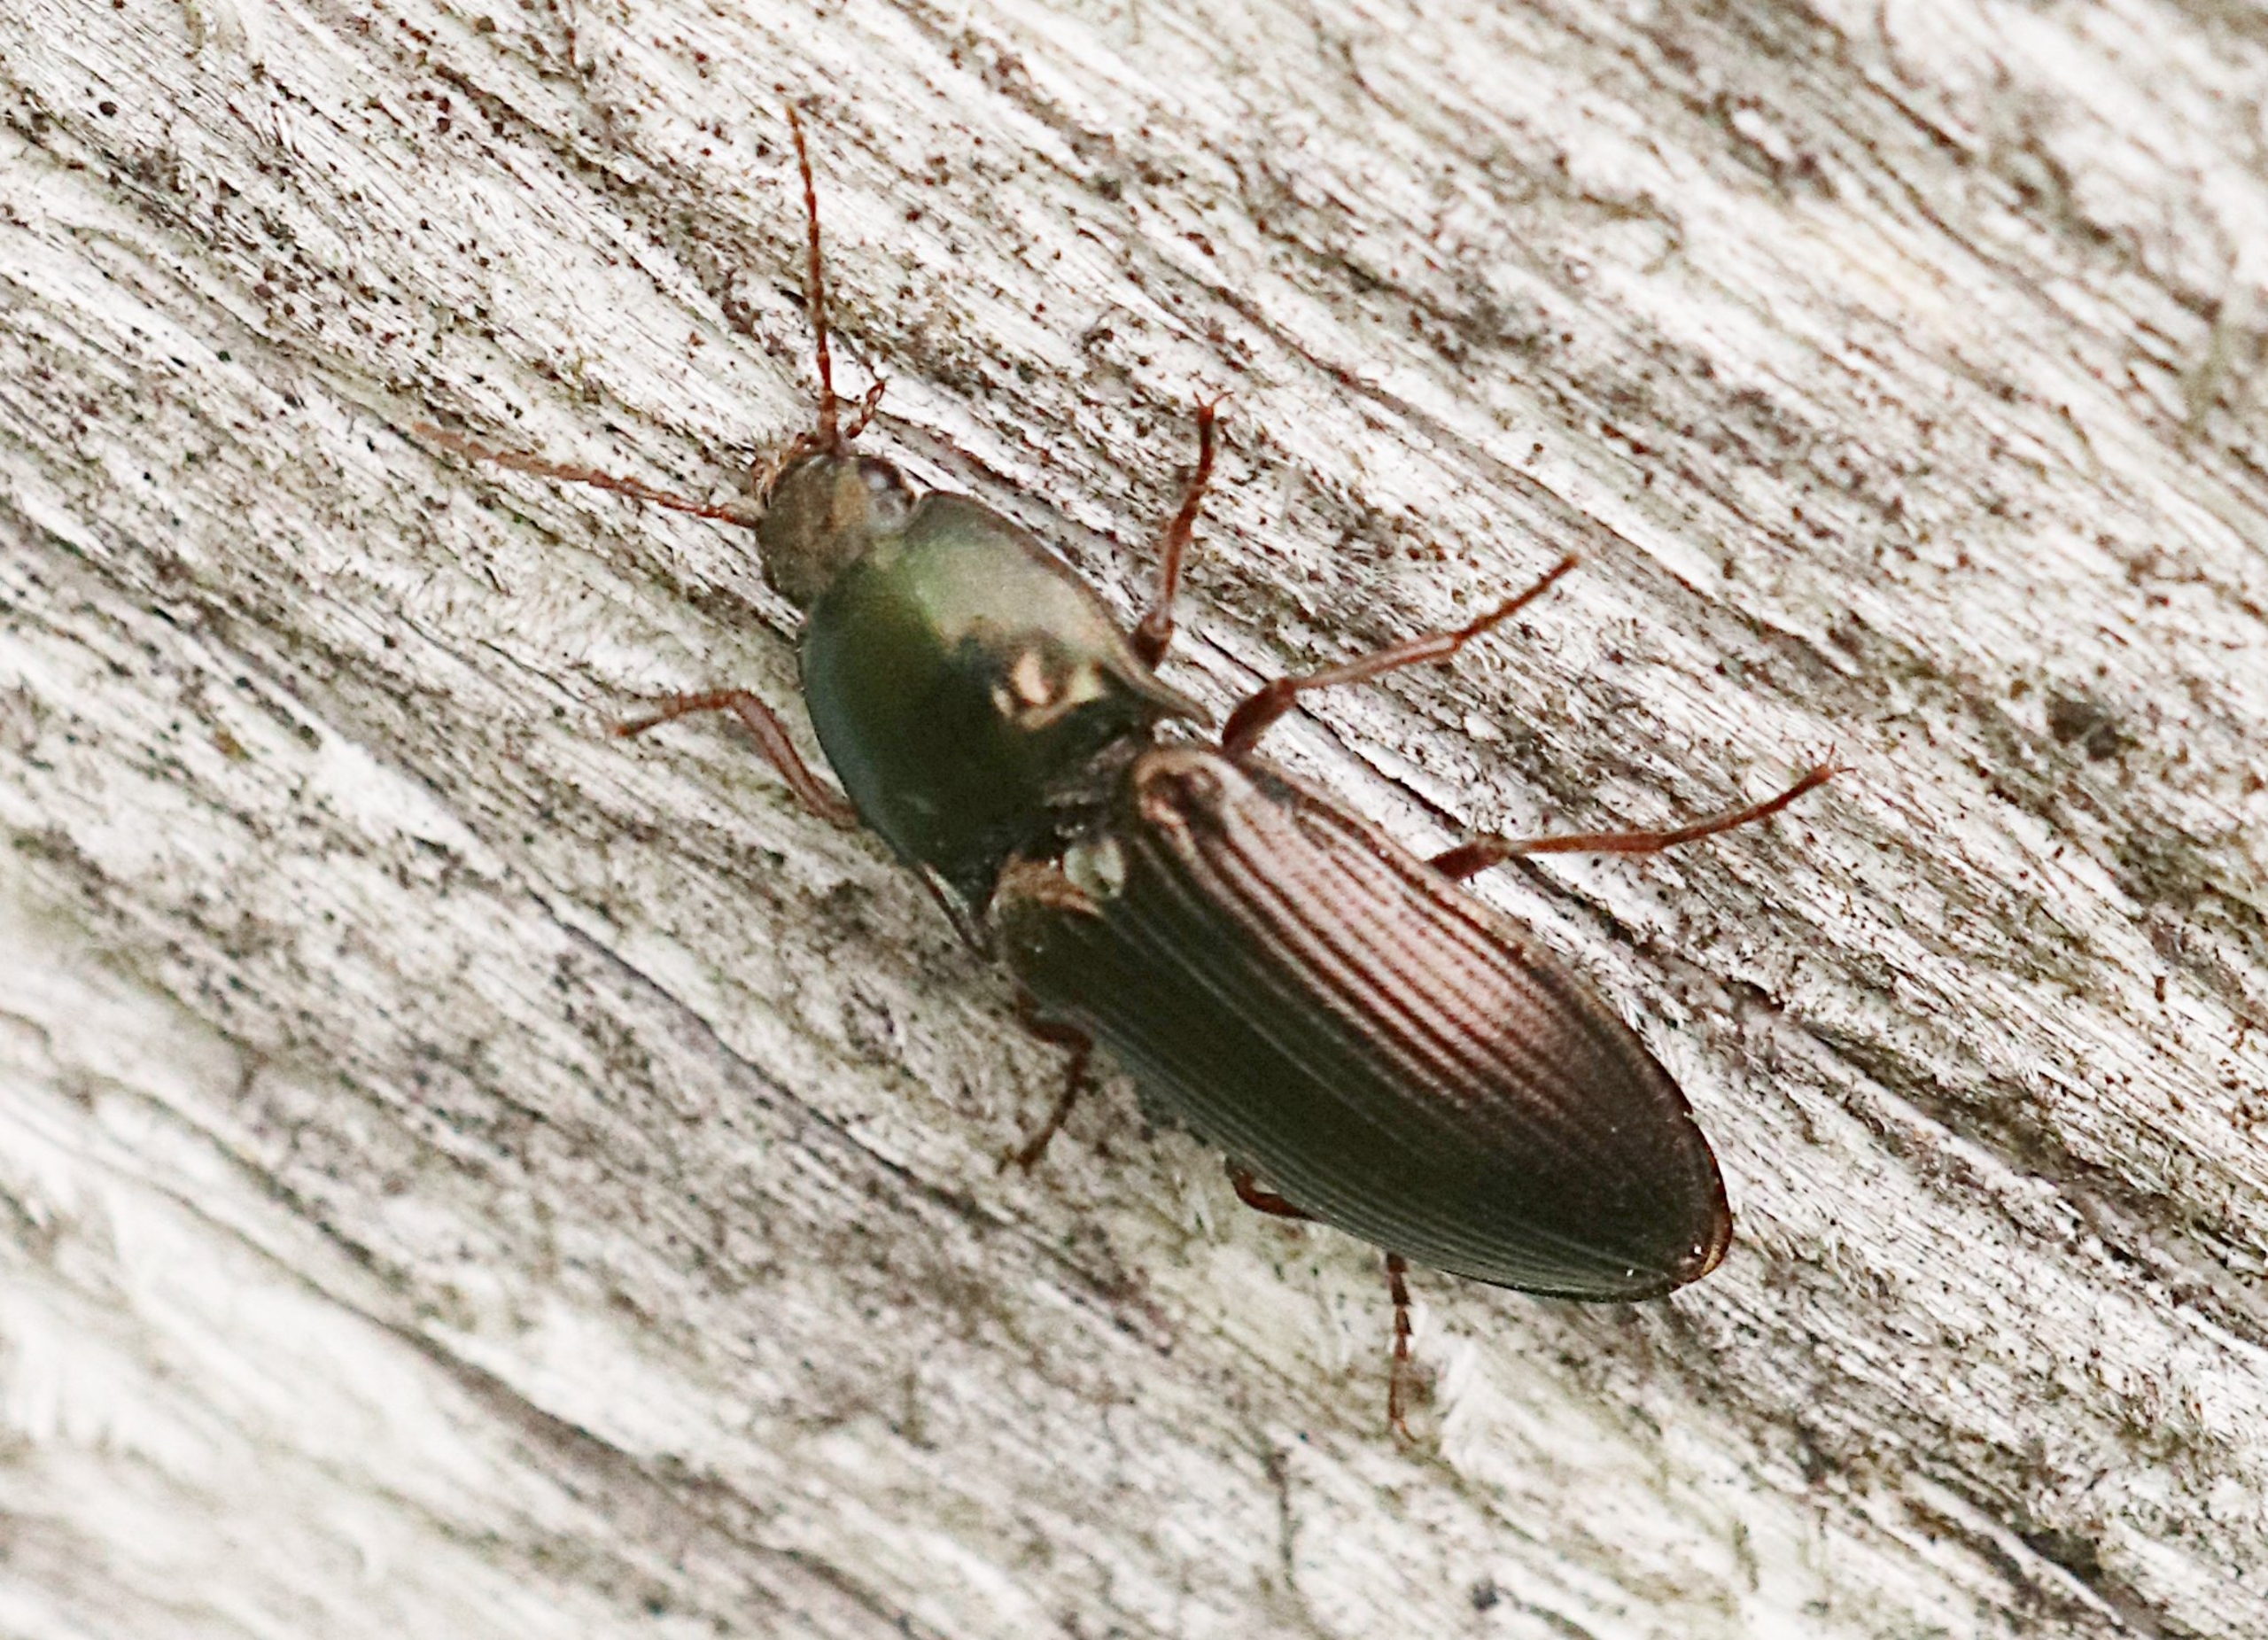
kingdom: Animalia
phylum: Arthropoda
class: Insecta
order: Coleoptera
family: Elateridae
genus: Selatosomus
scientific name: Selatosomus aeneus
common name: Kobbersmælder
